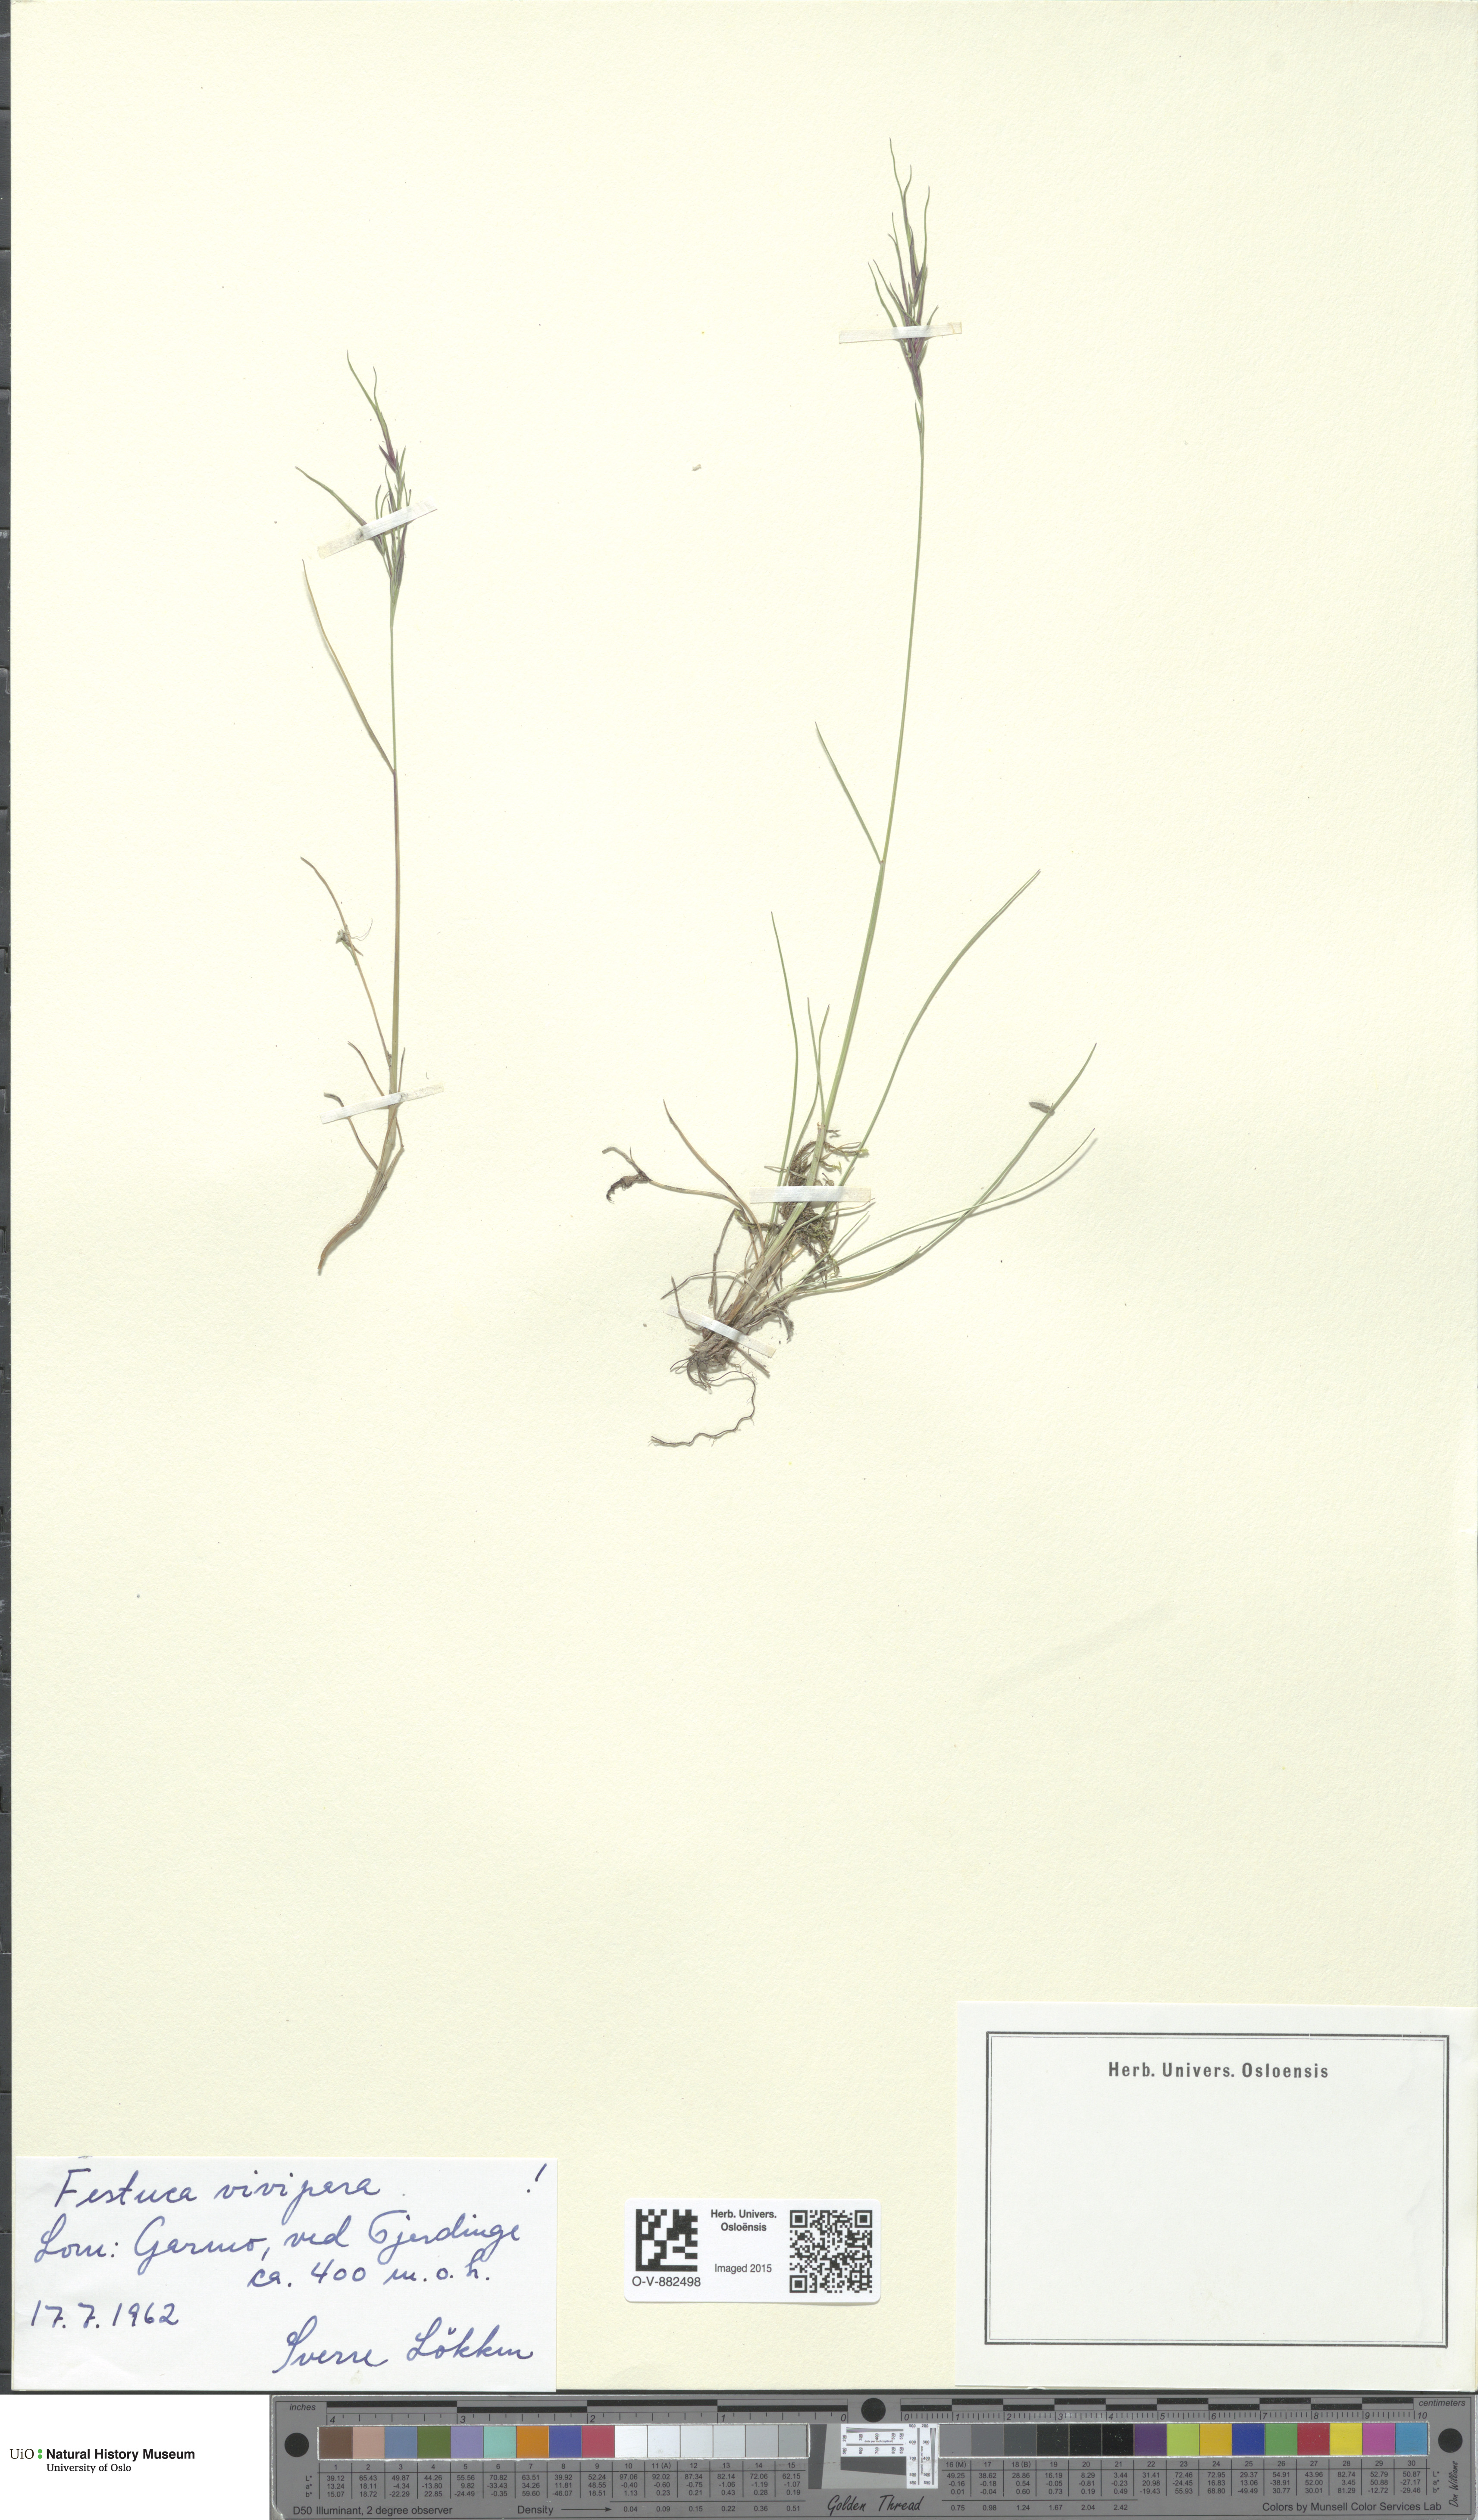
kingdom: Plantae
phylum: Tracheophyta
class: Liliopsida
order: Poales
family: Poaceae
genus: Festuca
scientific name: Festuca vivipara
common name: Viviparous sheep's-fescue
